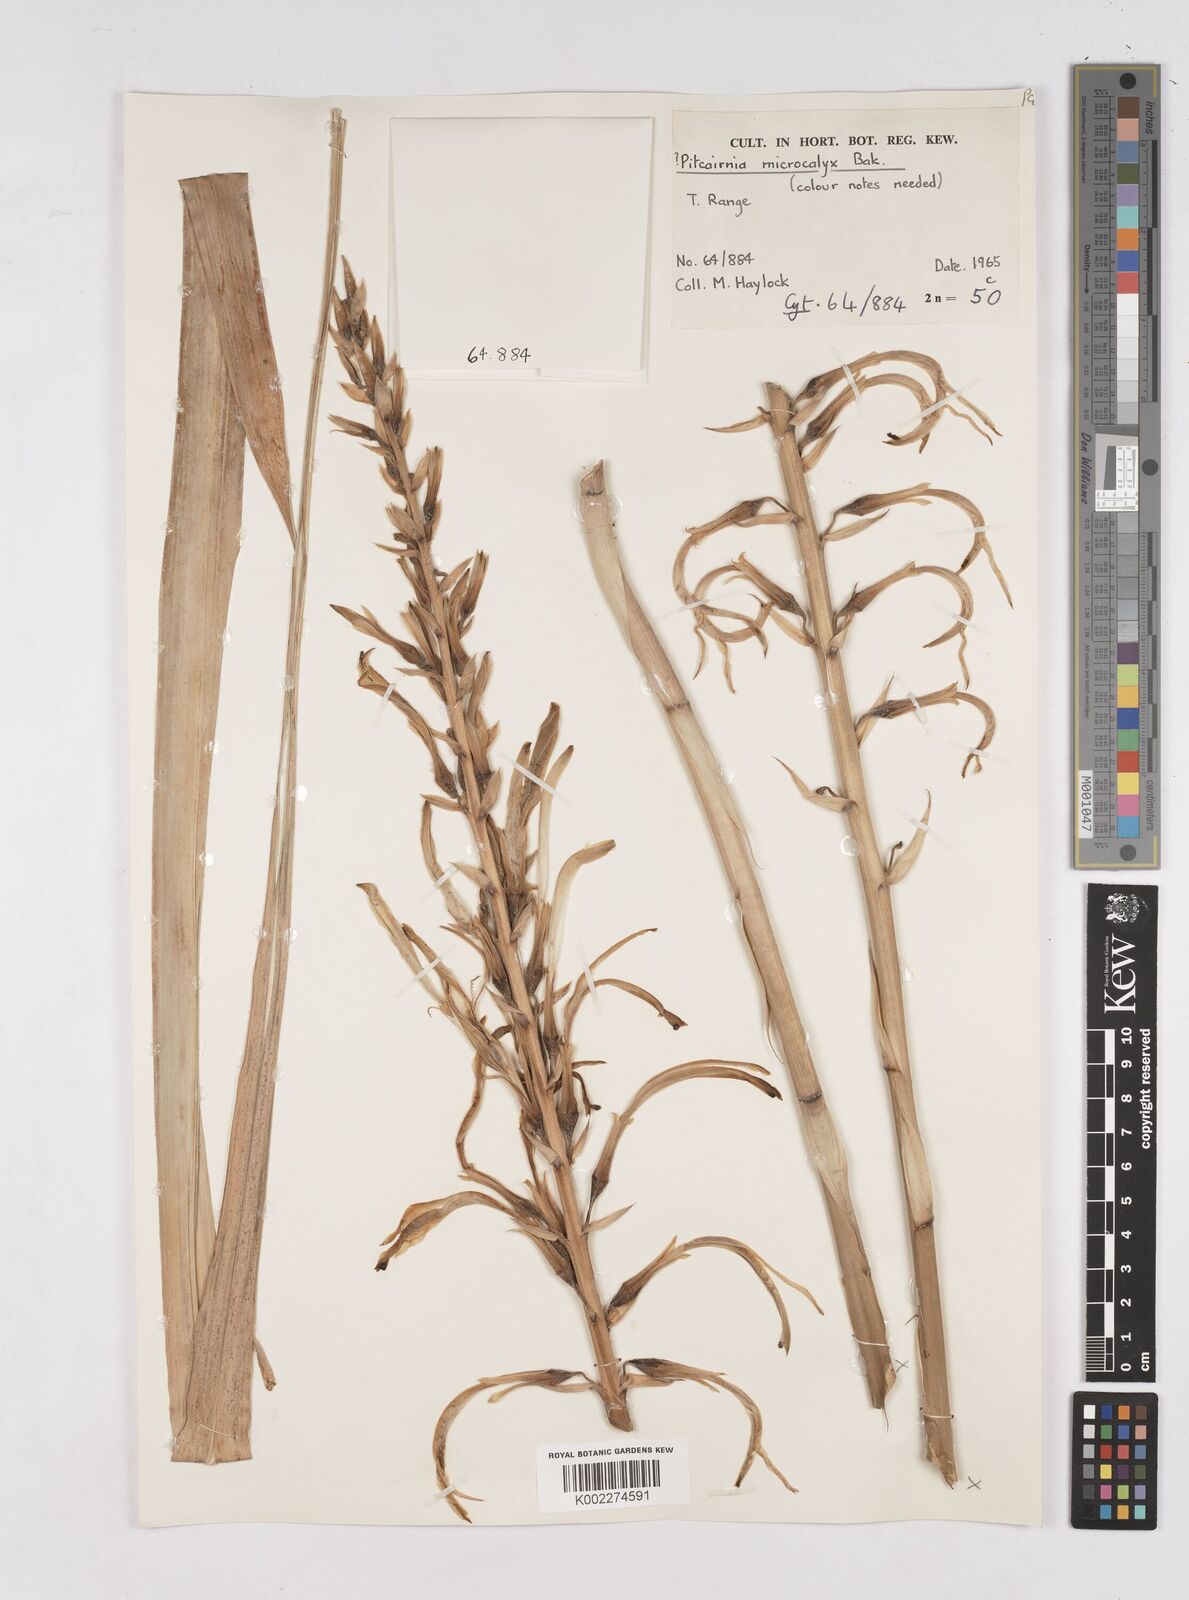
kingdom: Plantae
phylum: Tracheophyta
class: Liliopsida
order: Poales
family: Bromeliaceae
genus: Pitcairnia
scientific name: Pitcairnia microcalyx
